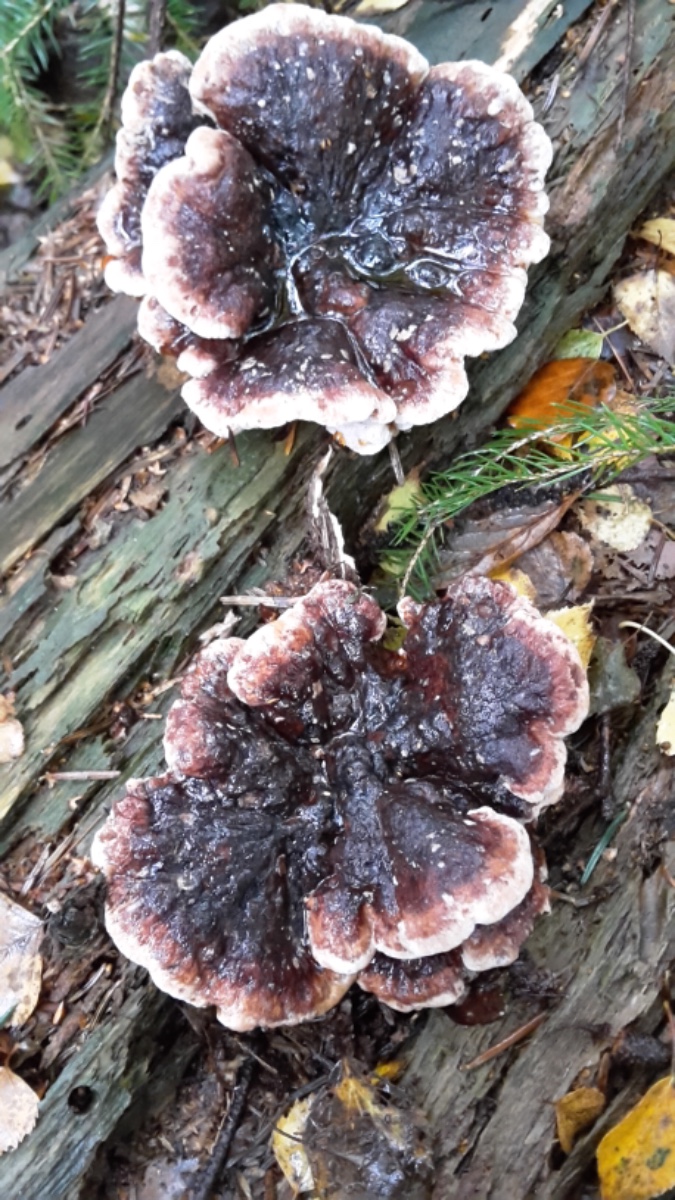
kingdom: Fungi
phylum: Basidiomycota
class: Agaricomycetes
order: Polyporales
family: Ischnodermataceae
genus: Ischnoderma
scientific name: Ischnoderma benzoinum
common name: gran-tjæreporesvamp
